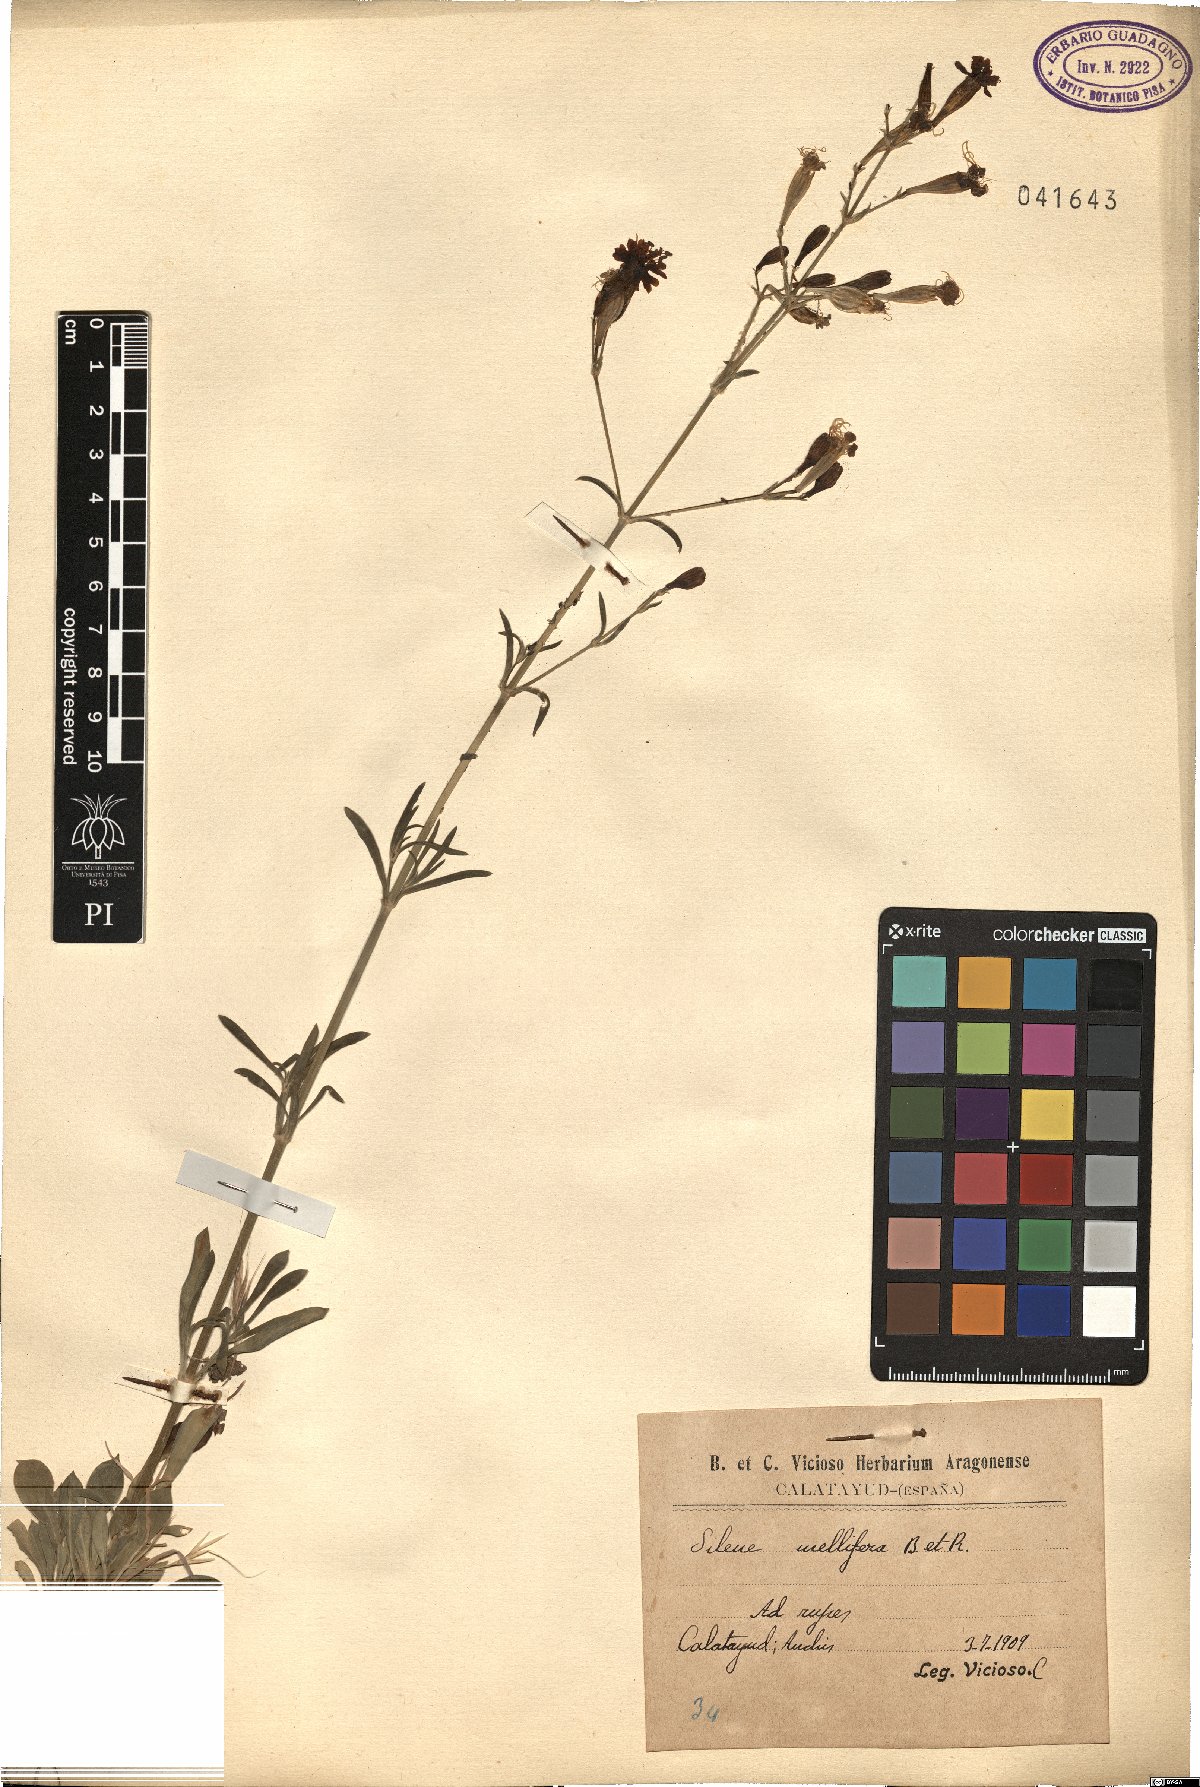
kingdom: Plantae
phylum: Tracheophyta
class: Magnoliopsida
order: Caryophyllales
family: Caryophyllaceae
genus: Silene
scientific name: Silene mellifera
